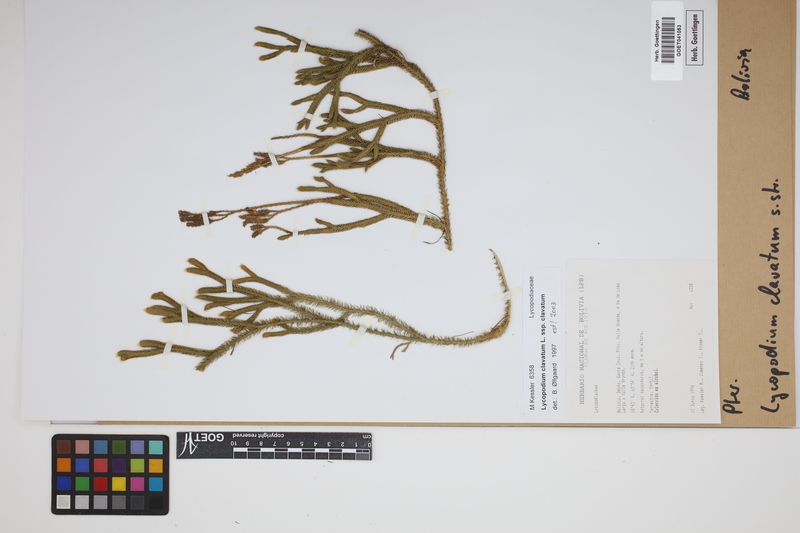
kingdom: Plantae
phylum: Tracheophyta
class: Lycopodiopsida
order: Lycopodiales
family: Lycopodiaceae
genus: Lycopodium
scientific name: Lycopodium clavatum
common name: Stag's-horn clubmoss
